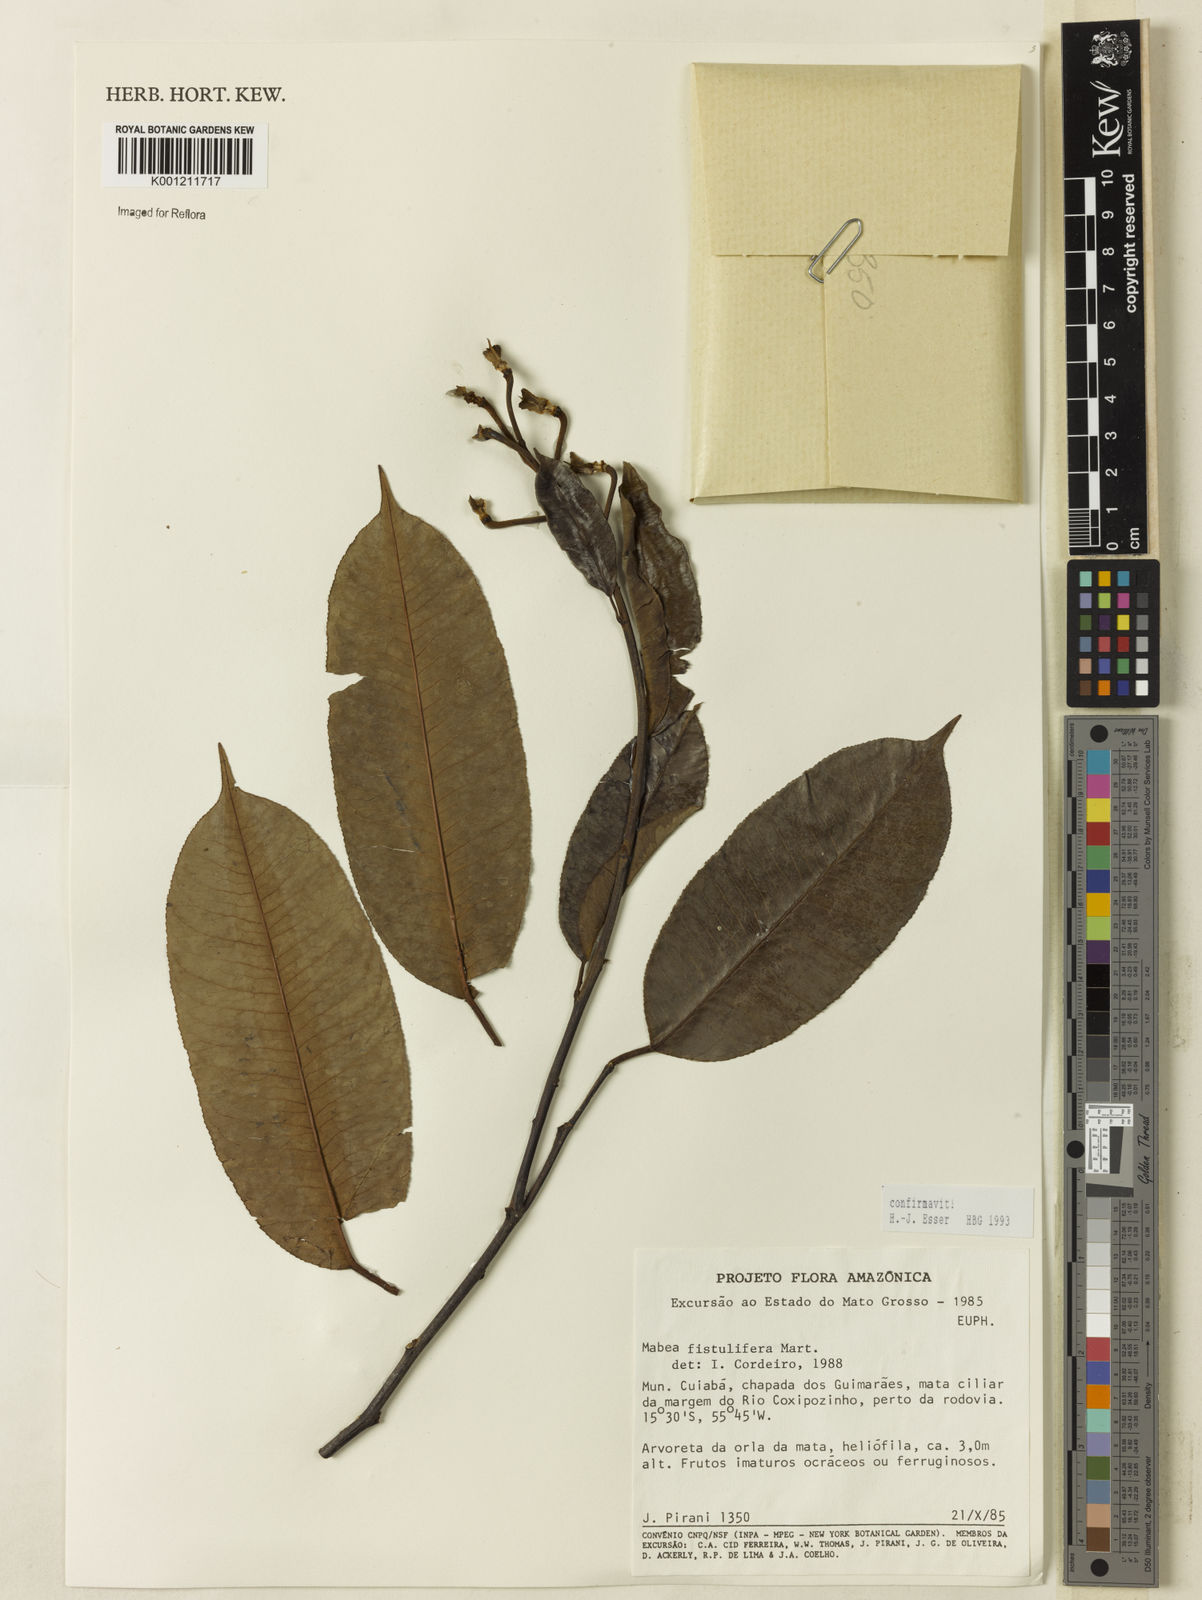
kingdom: Plantae
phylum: Tracheophyta
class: Magnoliopsida
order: Malpighiales
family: Euphorbiaceae
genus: Mabea
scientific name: Mabea fistulifera
